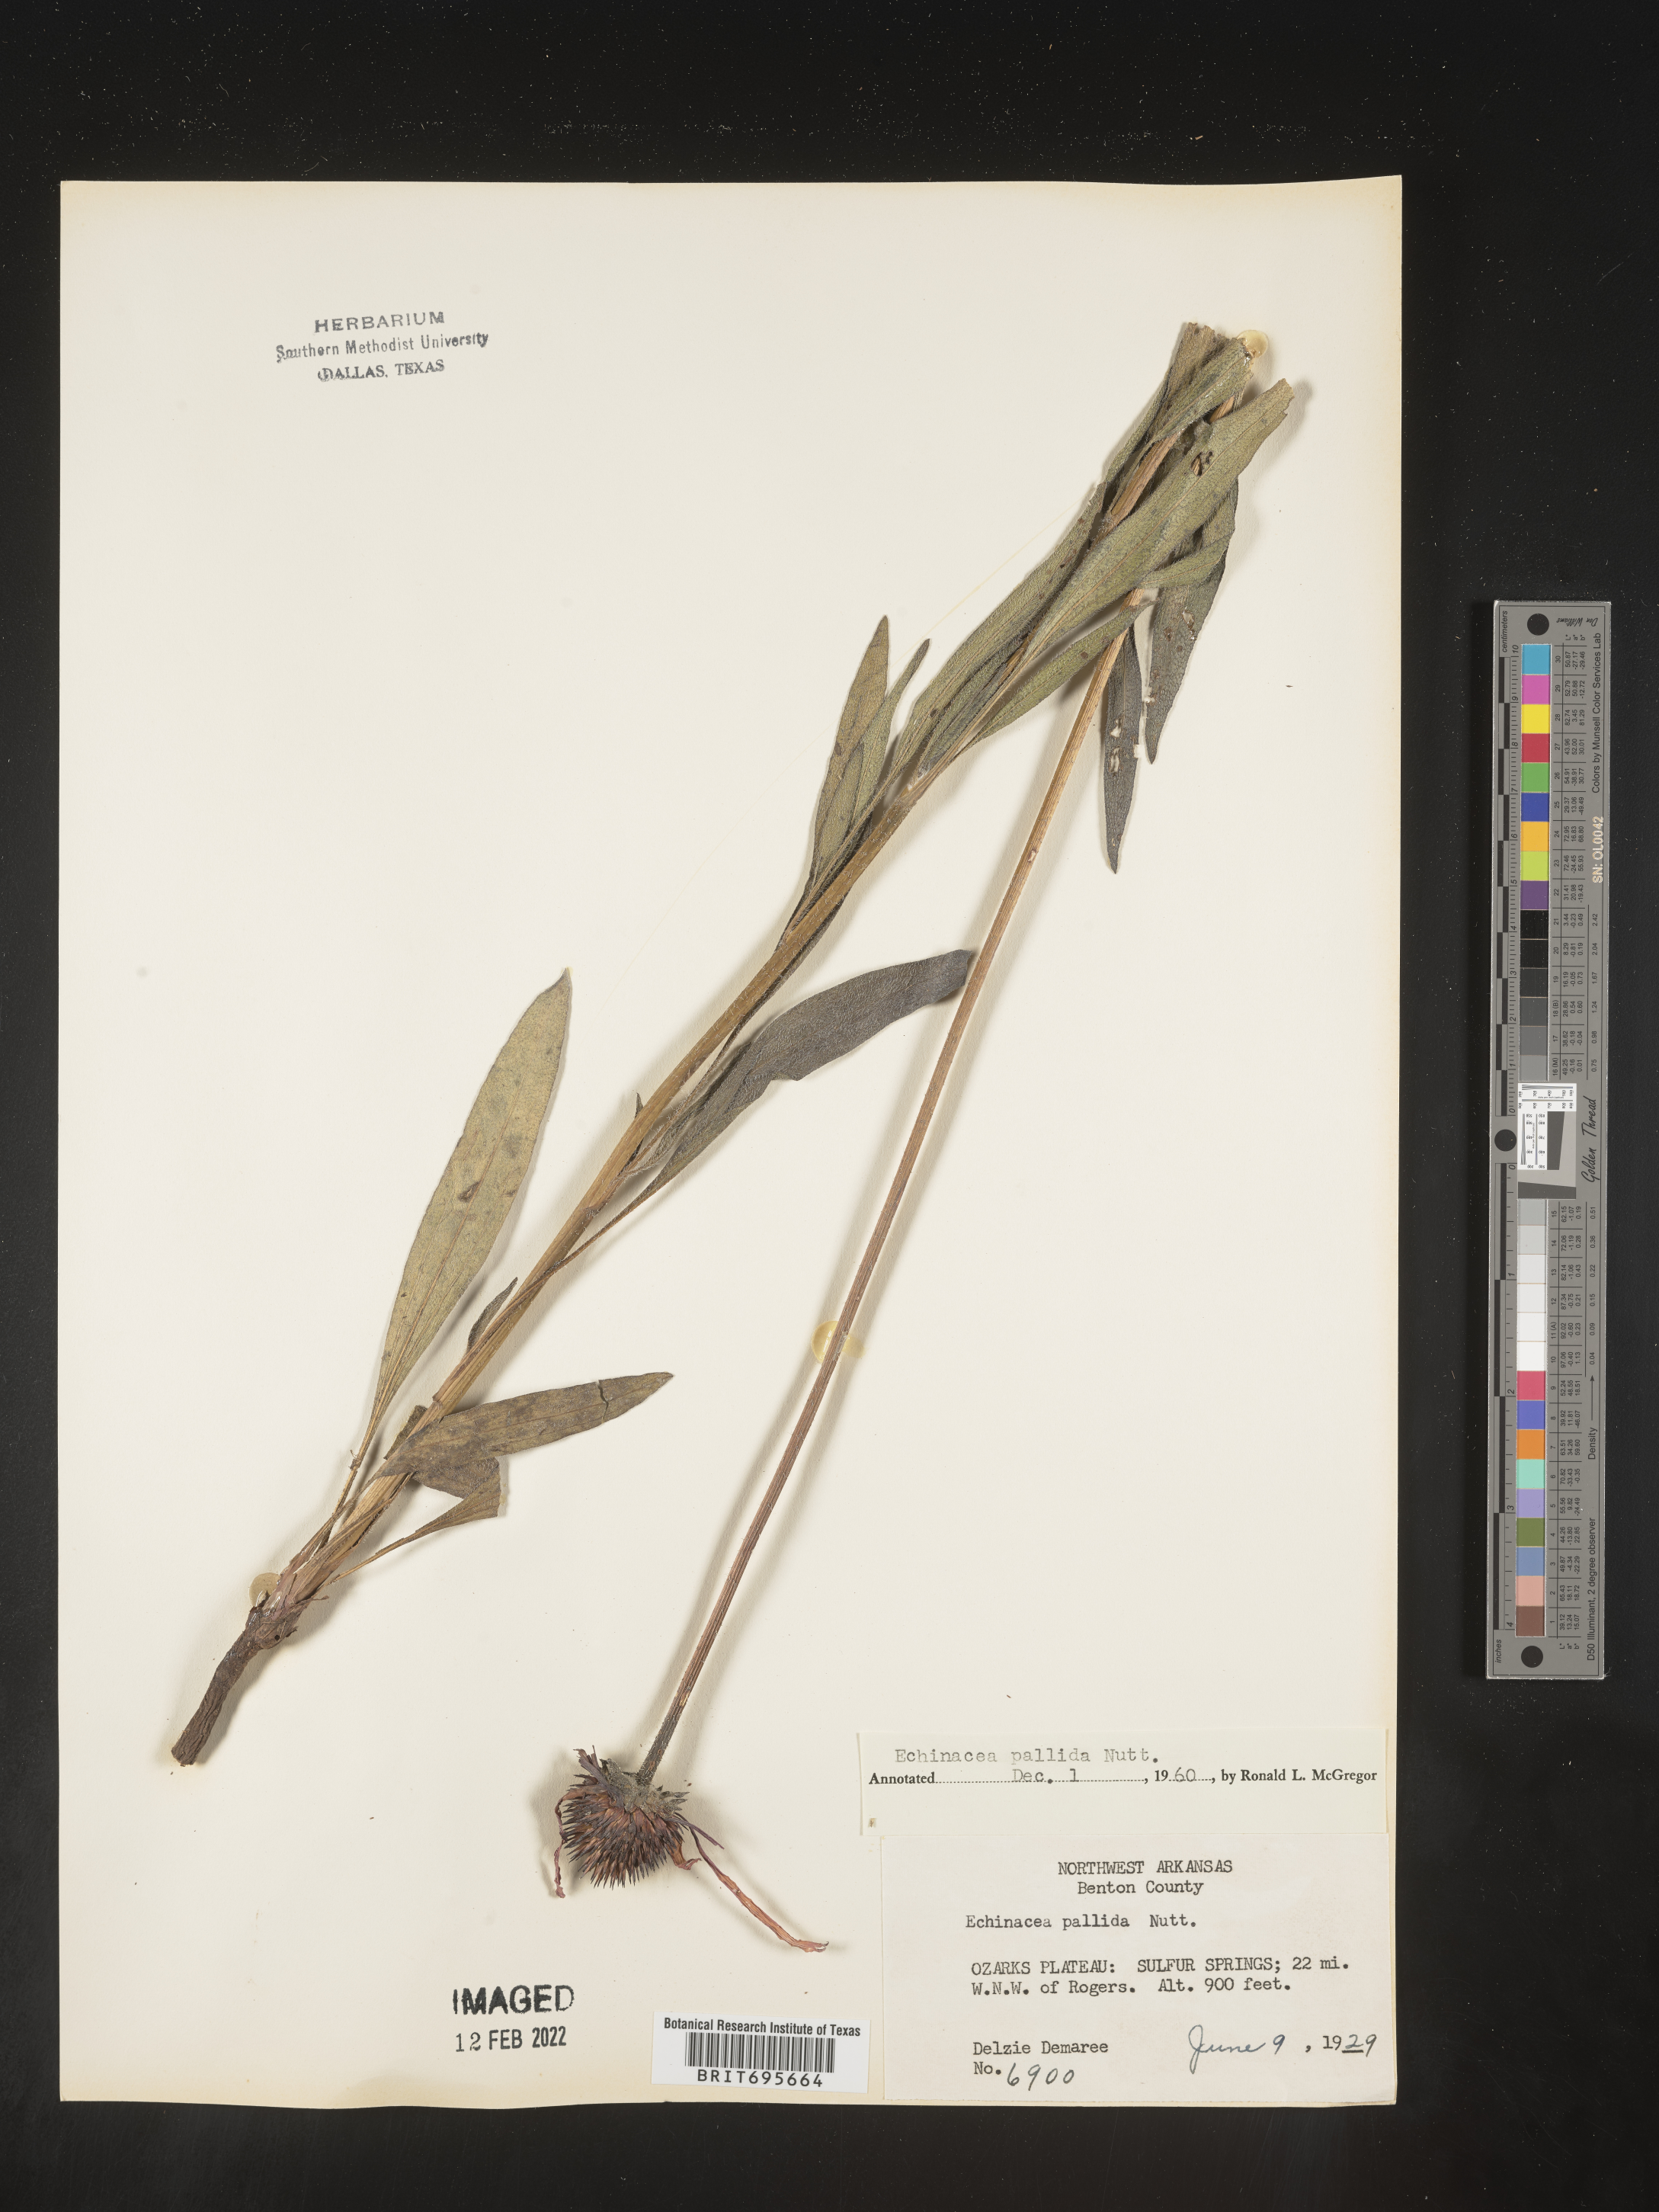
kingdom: Plantae
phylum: Tracheophyta
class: Magnoliopsida
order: Asterales
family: Asteraceae
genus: Echinacea
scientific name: Echinacea pallida
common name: Pale echinacea
